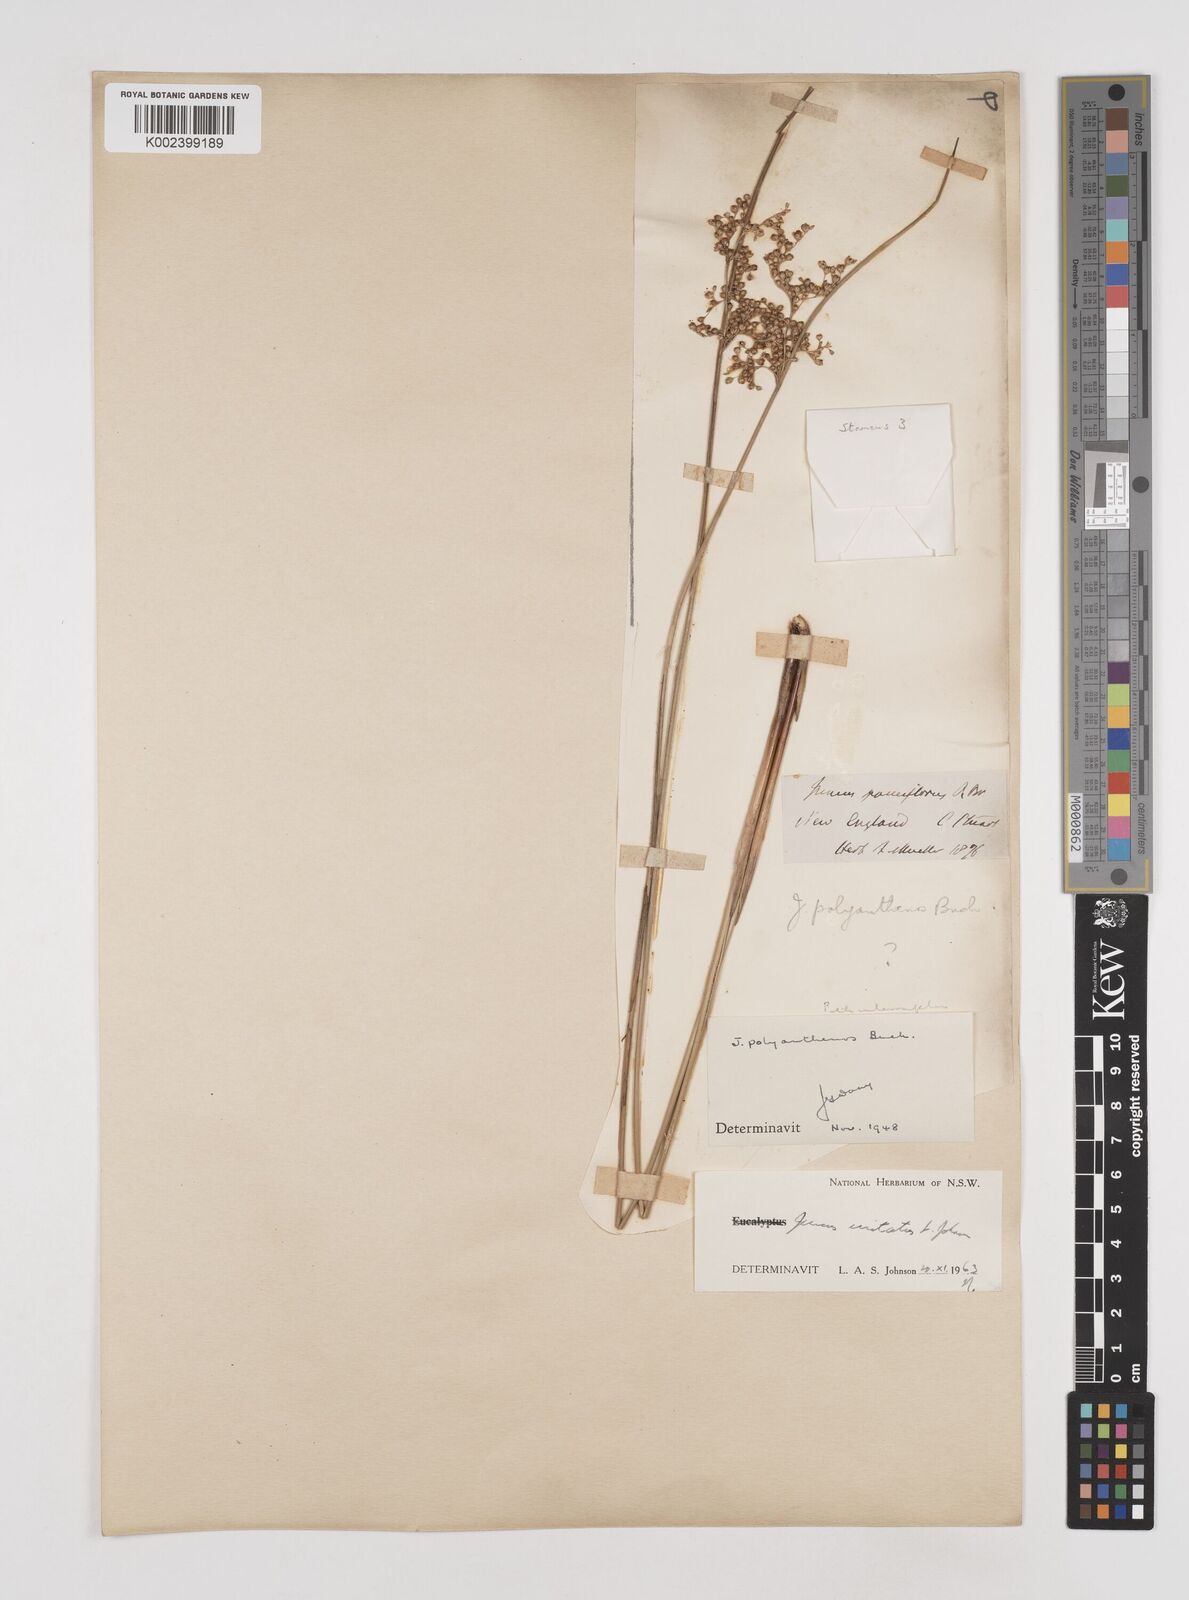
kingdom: Plantae
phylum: Tracheophyta
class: Liliopsida
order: Poales
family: Juncaceae
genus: Juncus
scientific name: Juncus usitatus
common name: Rush
